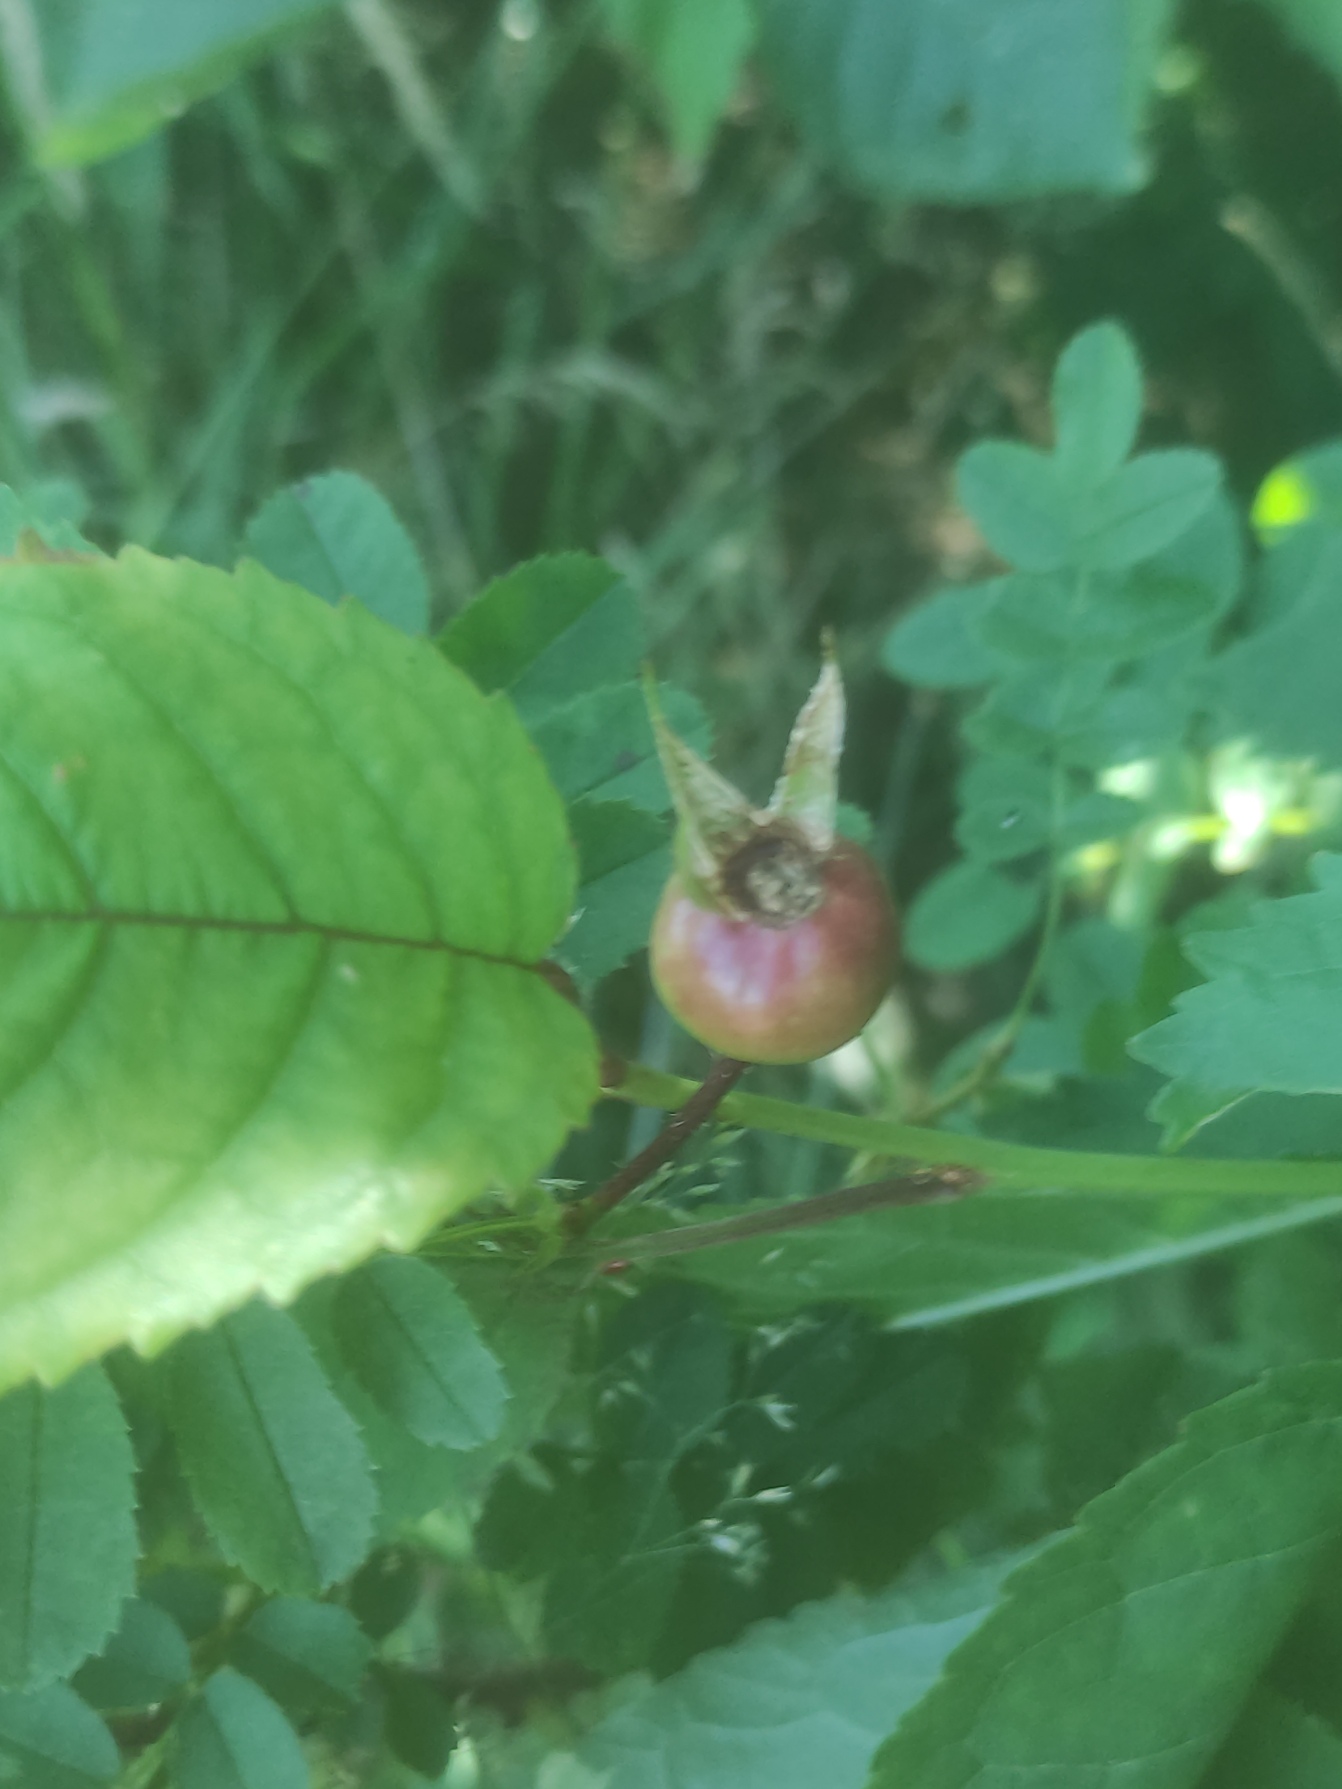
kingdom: Plantae
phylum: Tracheophyta
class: Magnoliopsida
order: Rosales
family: Rosaceae
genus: Rosa
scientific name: Rosa spinosissima
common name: Klit-rose
